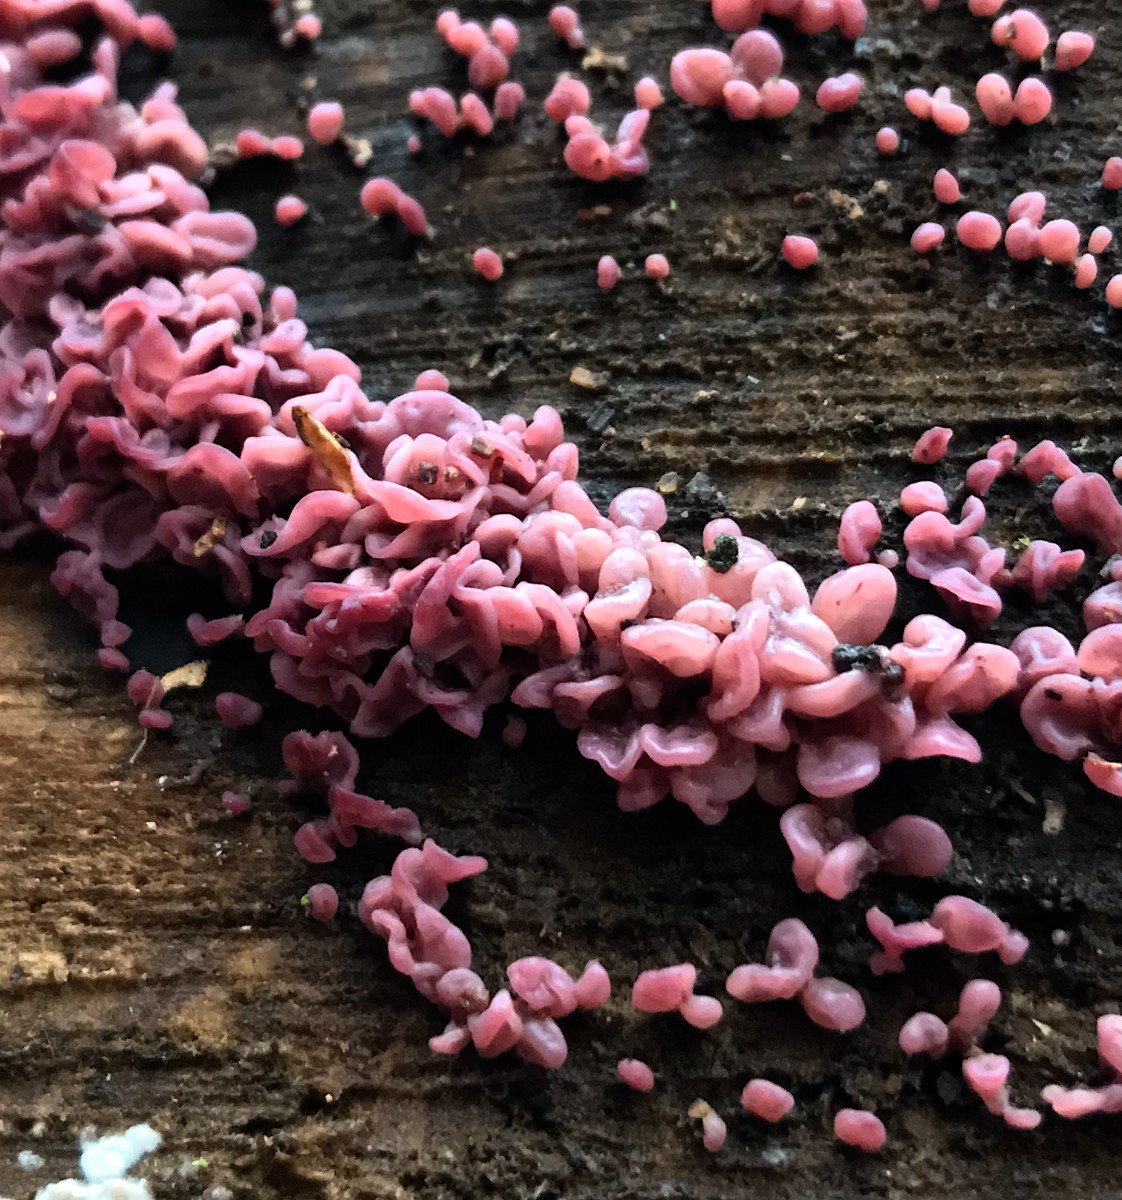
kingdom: Fungi
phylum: Ascomycota
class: Leotiomycetes
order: Helotiales
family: Gelatinodiscaceae
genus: Ascocoryne
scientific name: Ascocoryne sarcoides
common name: rødlilla sejskive
